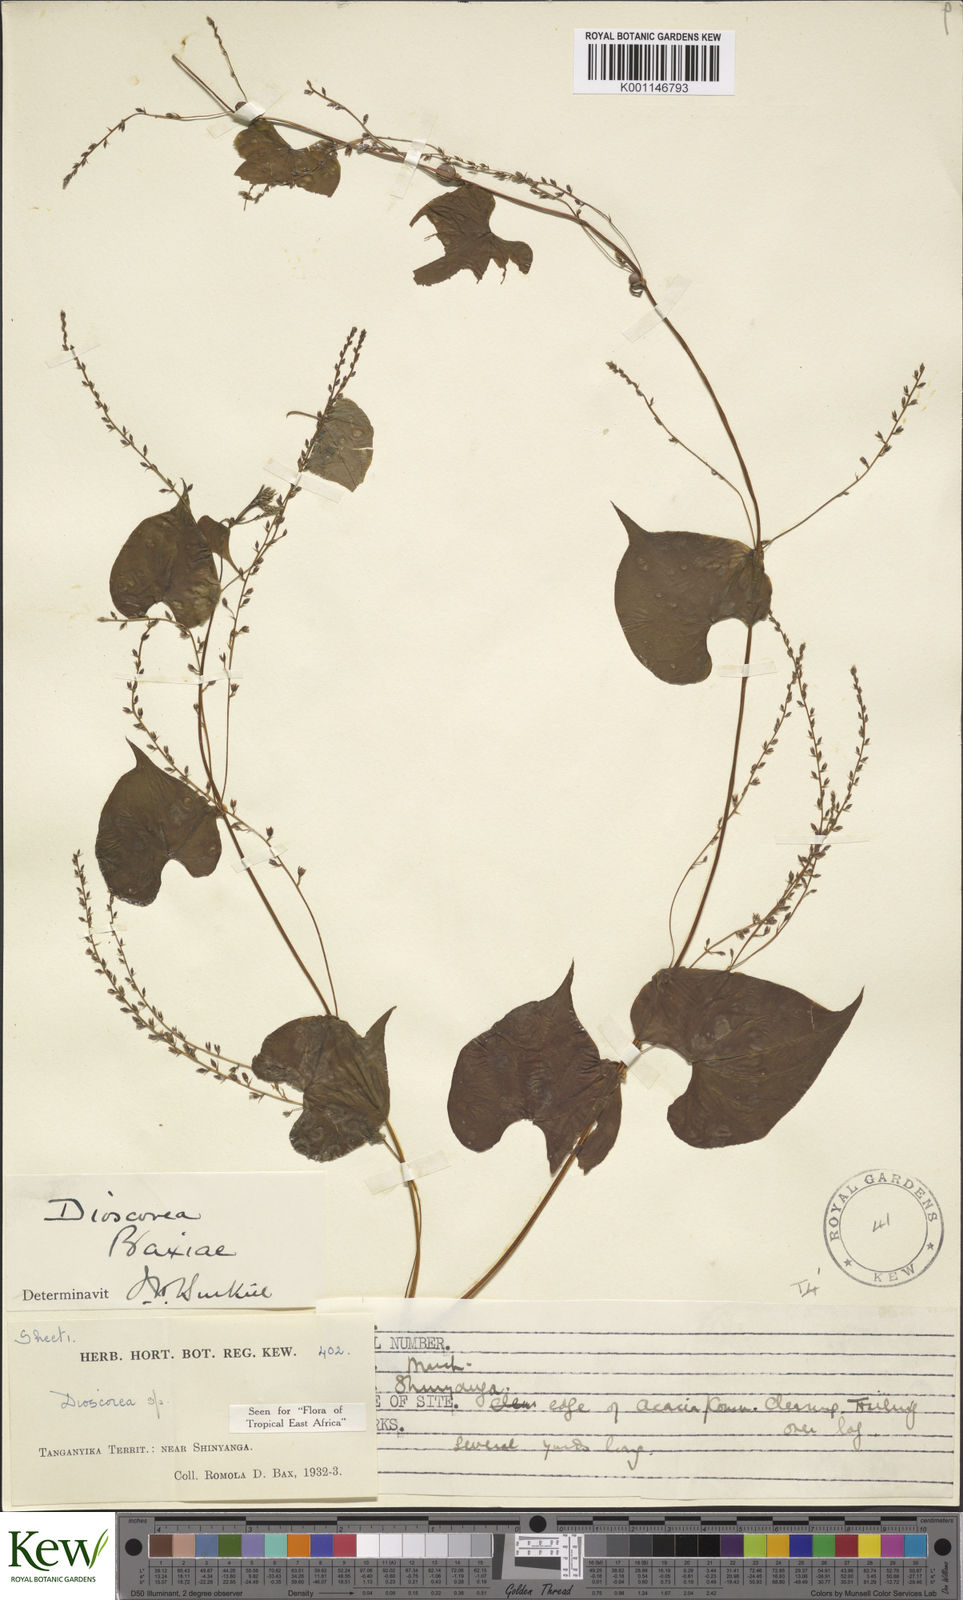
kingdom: Plantae
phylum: Tracheophyta
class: Liliopsida
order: Dioscoreales
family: Dioscoreaceae
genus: Dioscorea
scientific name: Dioscorea asteriscus
